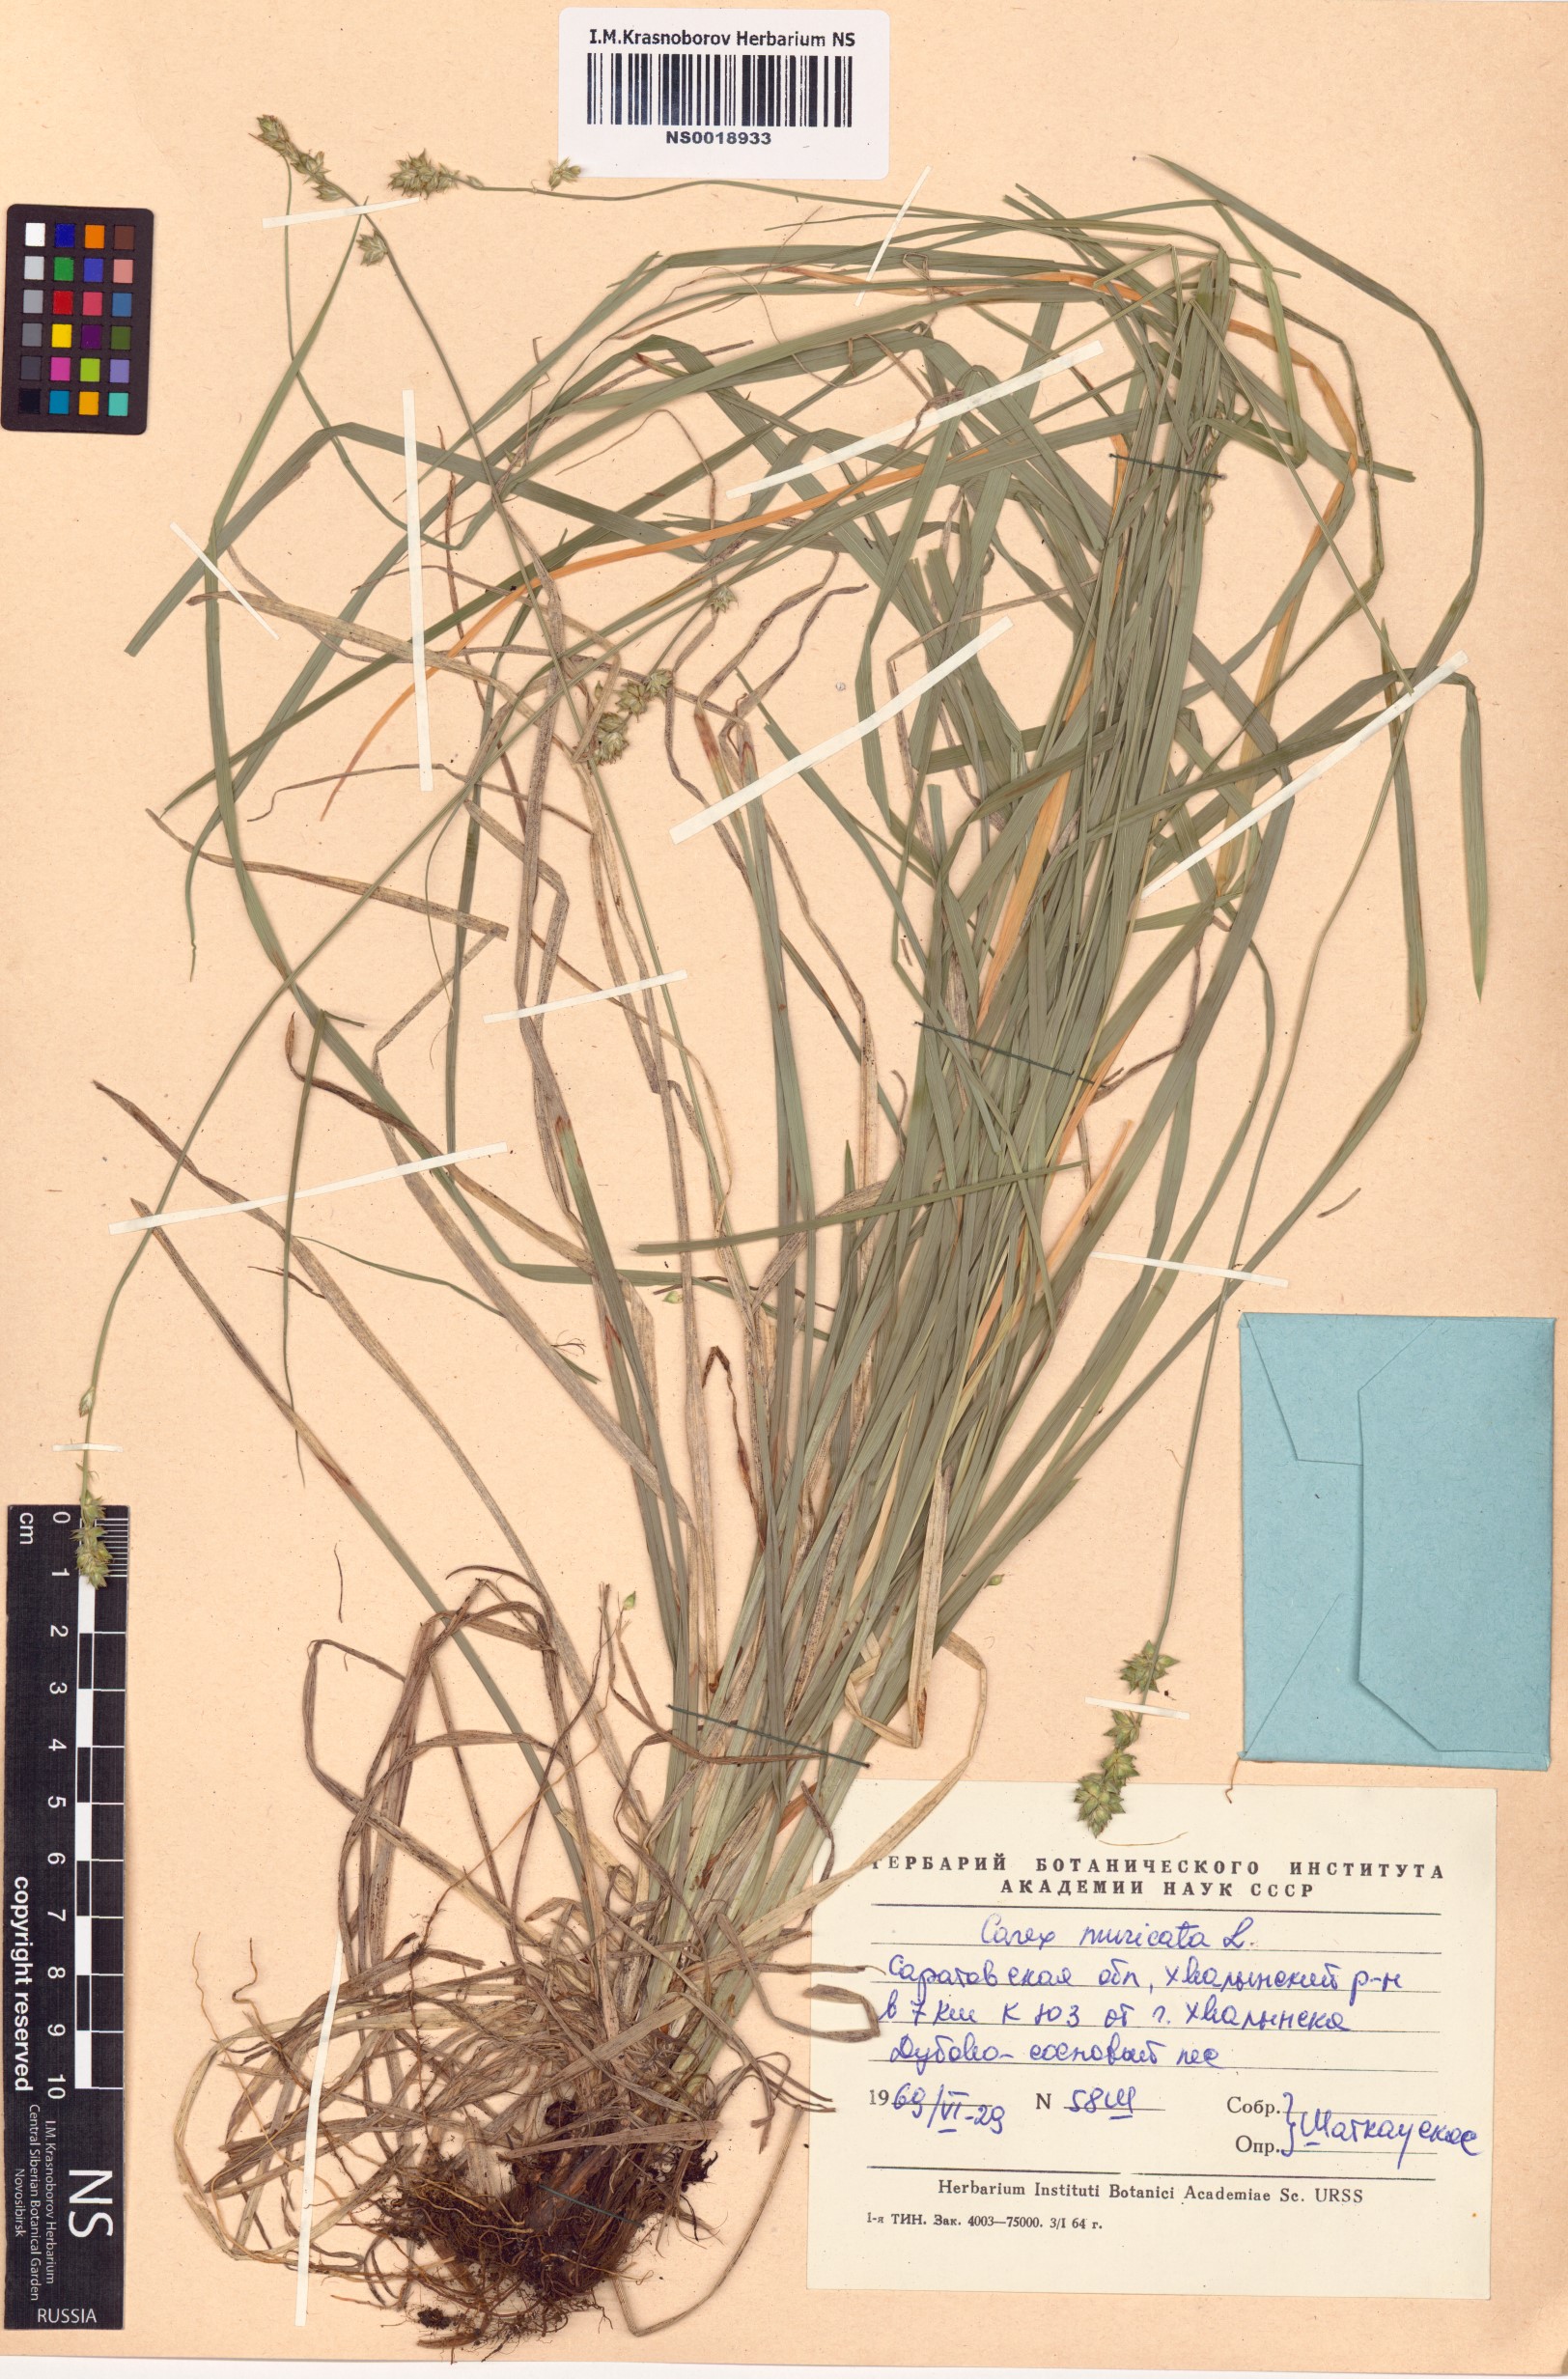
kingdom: Plantae
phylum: Tracheophyta
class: Liliopsida
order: Poales
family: Cyperaceae
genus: Carex
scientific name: Carex muricata
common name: Rough sedge
